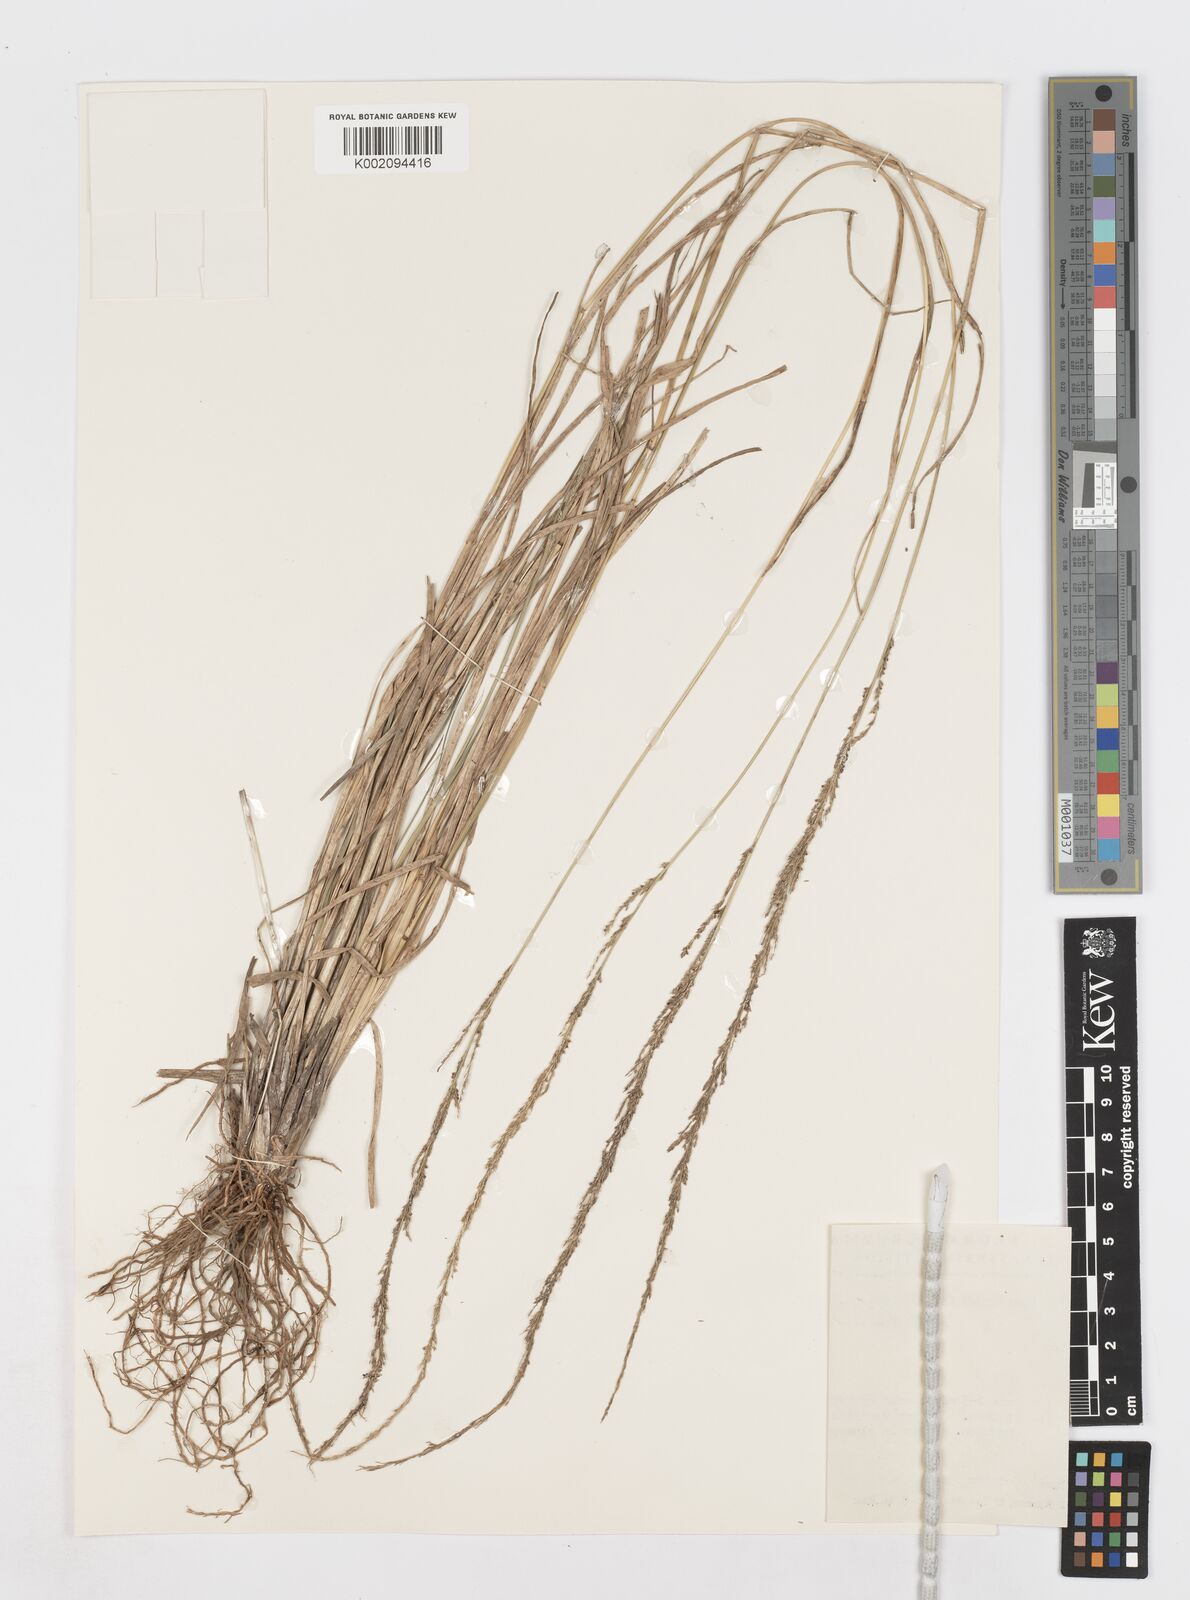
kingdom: Plantae
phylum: Tracheophyta
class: Liliopsida
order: Poales
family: Poaceae
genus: Sporobolus
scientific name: Sporobolus fertilis
